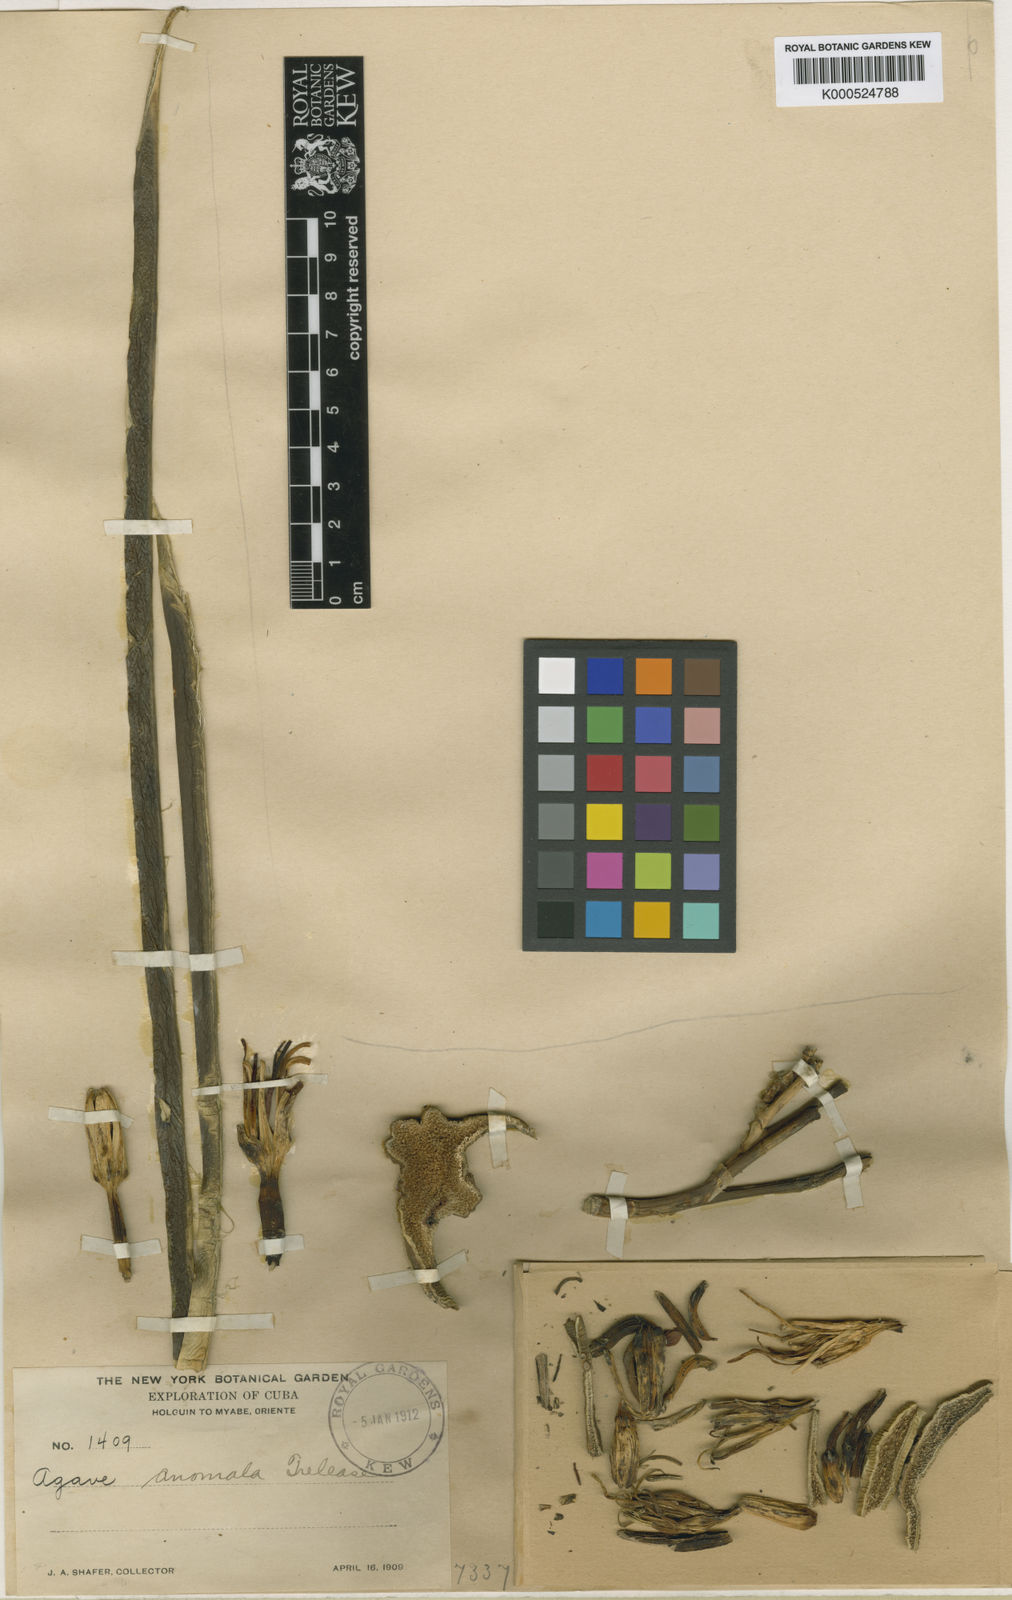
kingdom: Plantae
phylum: Tracheophyta
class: Liliopsida
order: Asparagales
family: Asparagaceae
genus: Agave
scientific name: Agave anomala
